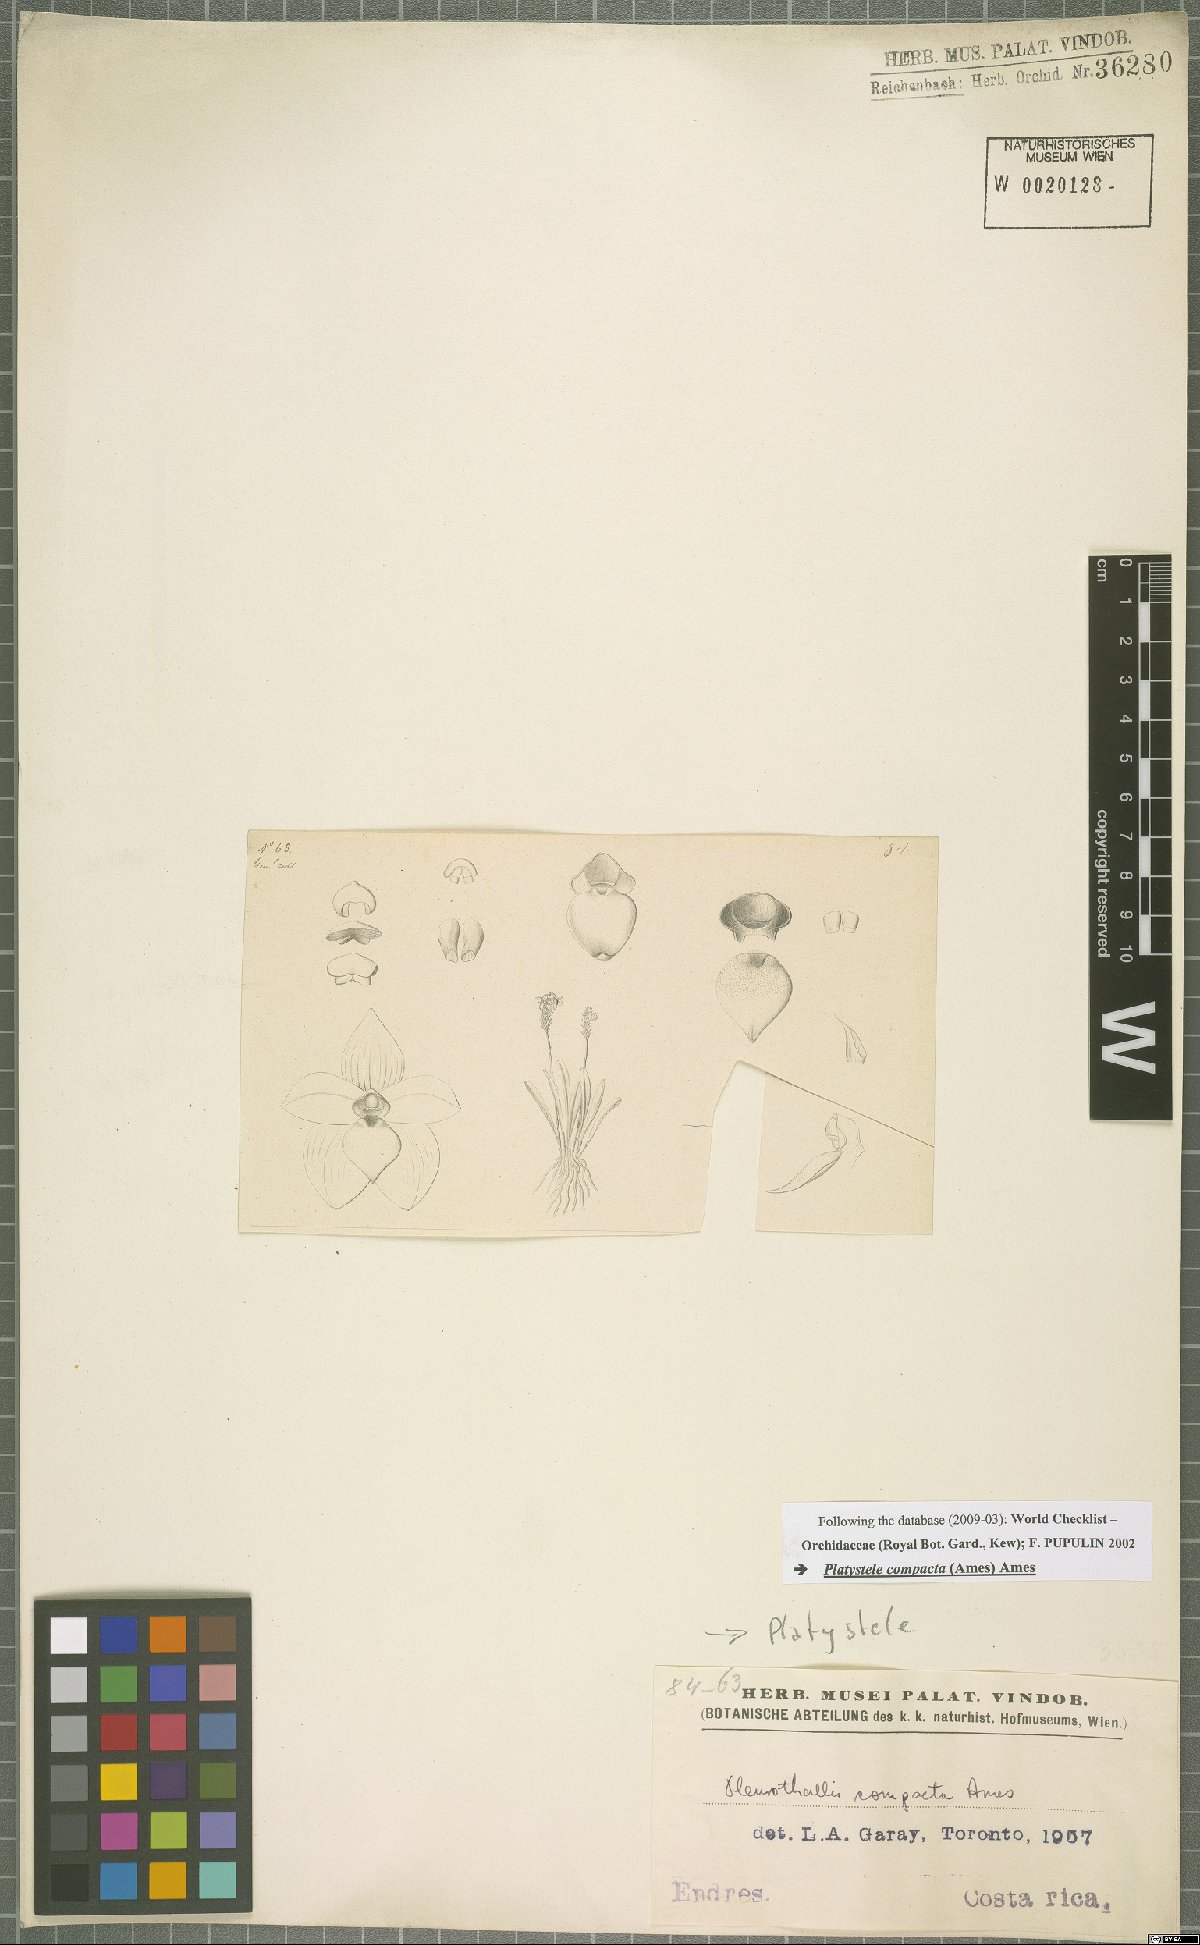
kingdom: Plantae
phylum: Tracheophyta
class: Liliopsida
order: Asparagales
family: Orchidaceae
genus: Platystele
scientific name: Platystele compacta
